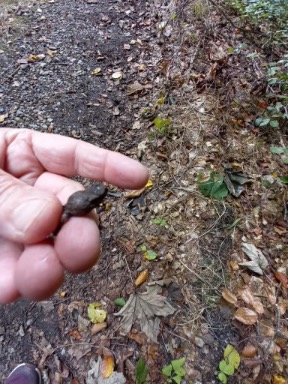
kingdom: Animalia
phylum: Chordata
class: Amphibia
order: Anura
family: Bufonidae
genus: Bufo
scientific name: Bufo bufo
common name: Skrubtudse
